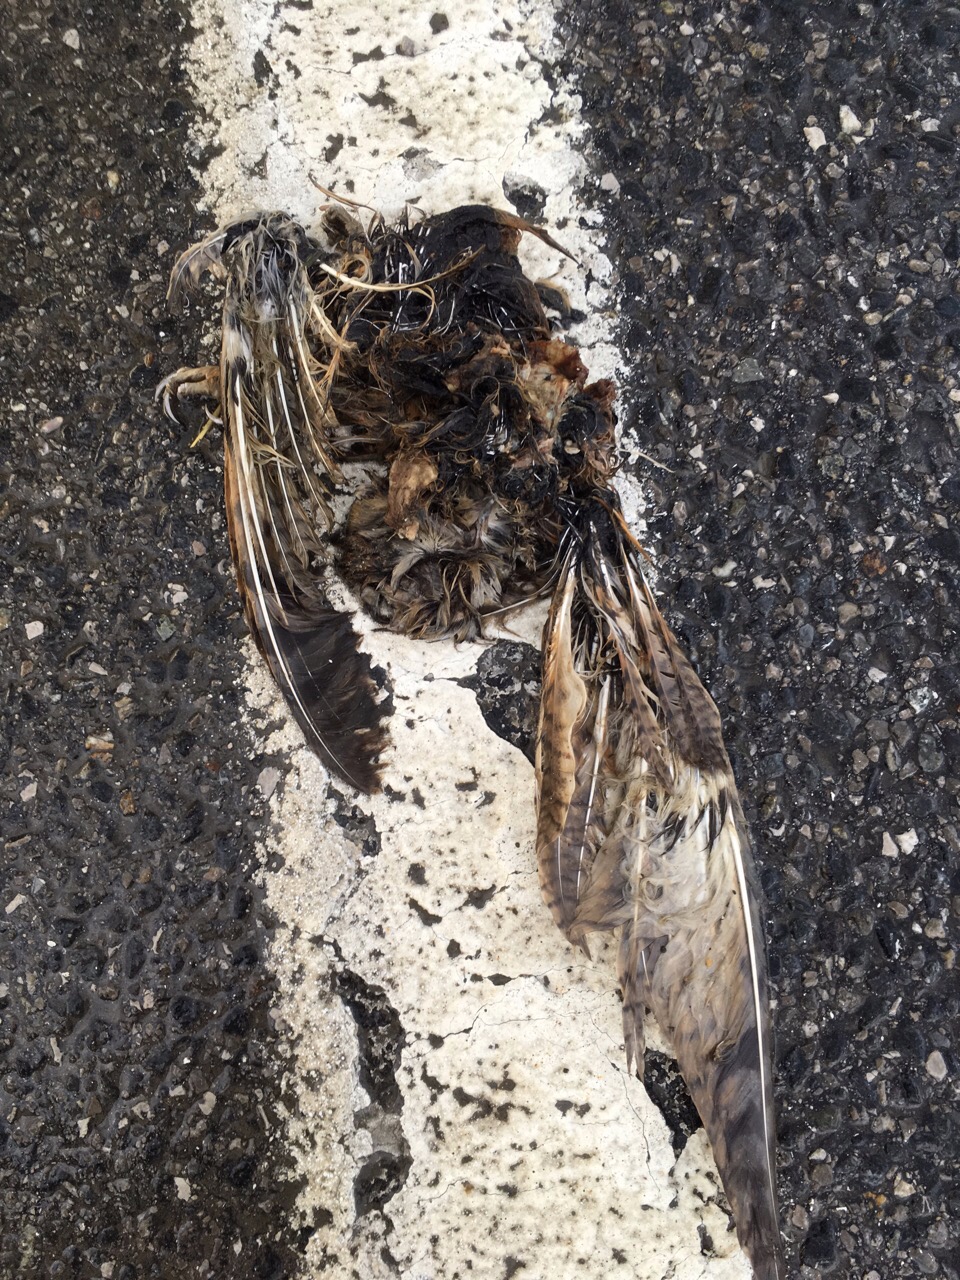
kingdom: Animalia
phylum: Chordata
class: Aves
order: Strigiformes
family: Strigidae
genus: Strix
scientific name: Strix aluco
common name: Tawny owl
